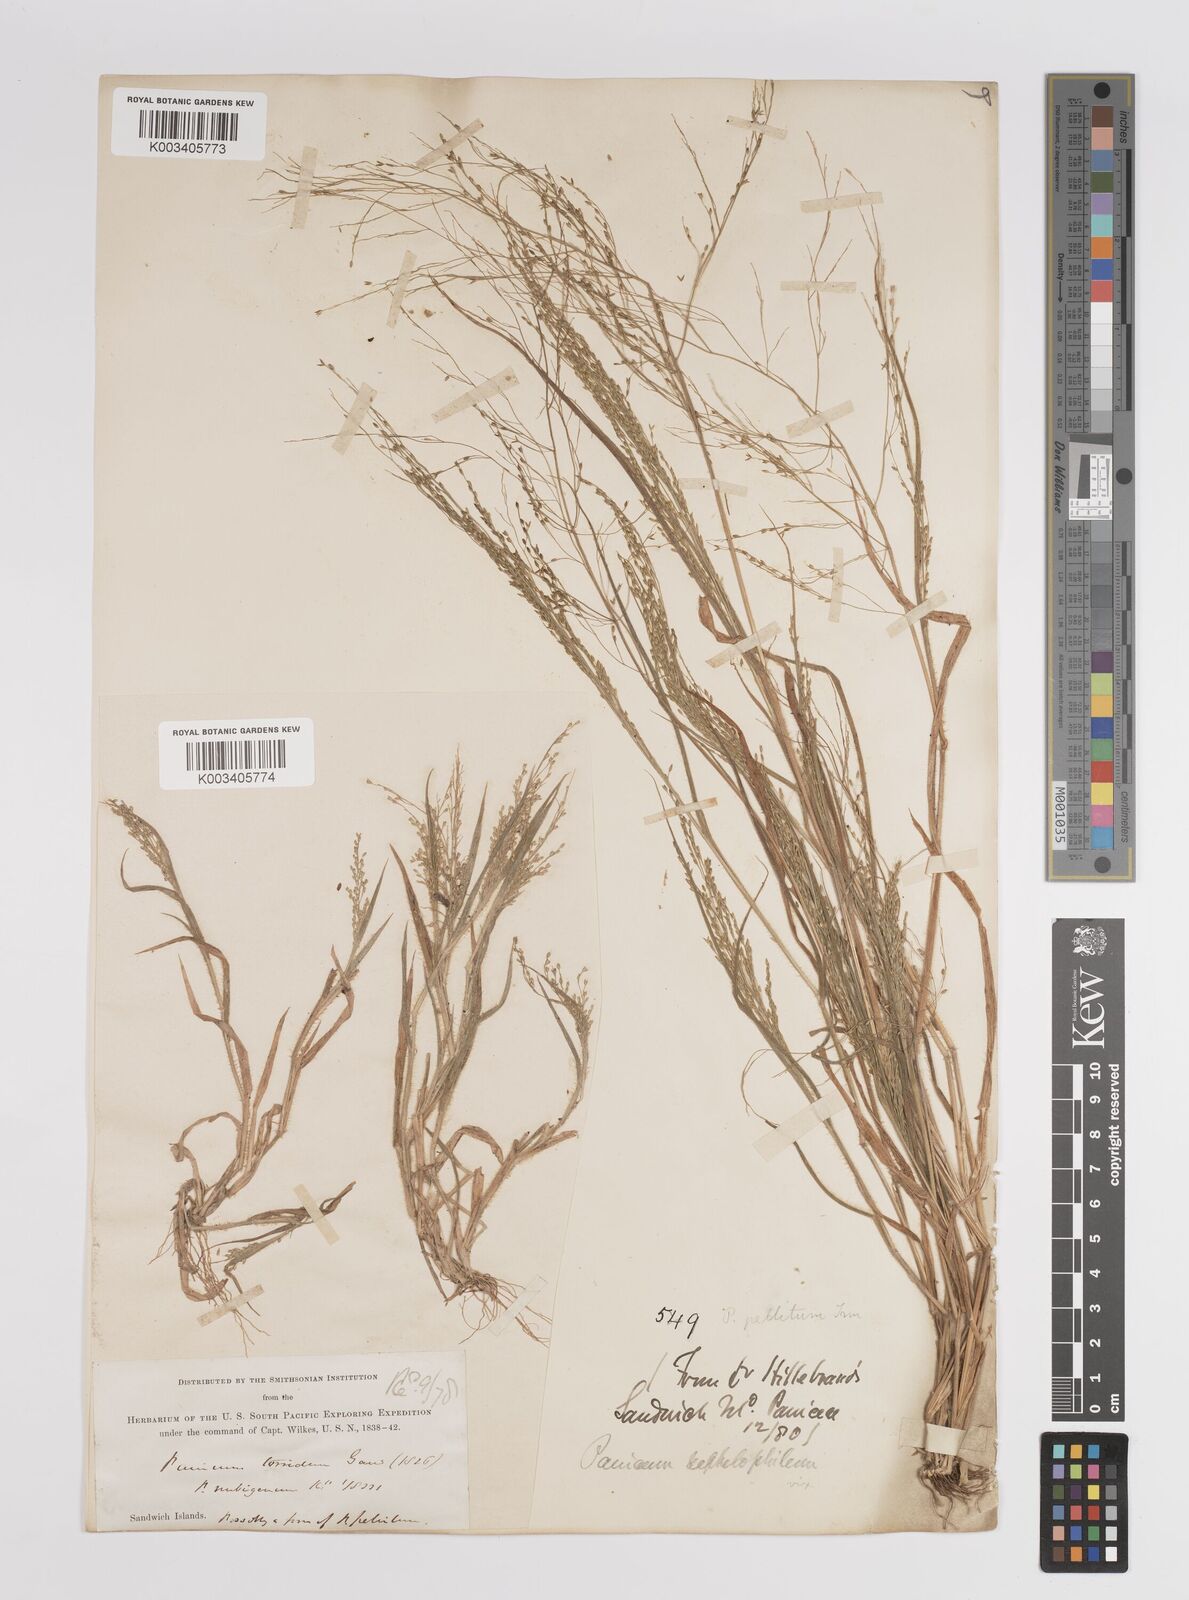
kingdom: Plantae
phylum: Tracheophyta
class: Liliopsida
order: Poales
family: Poaceae
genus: Panicum
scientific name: Panicum pellitum
